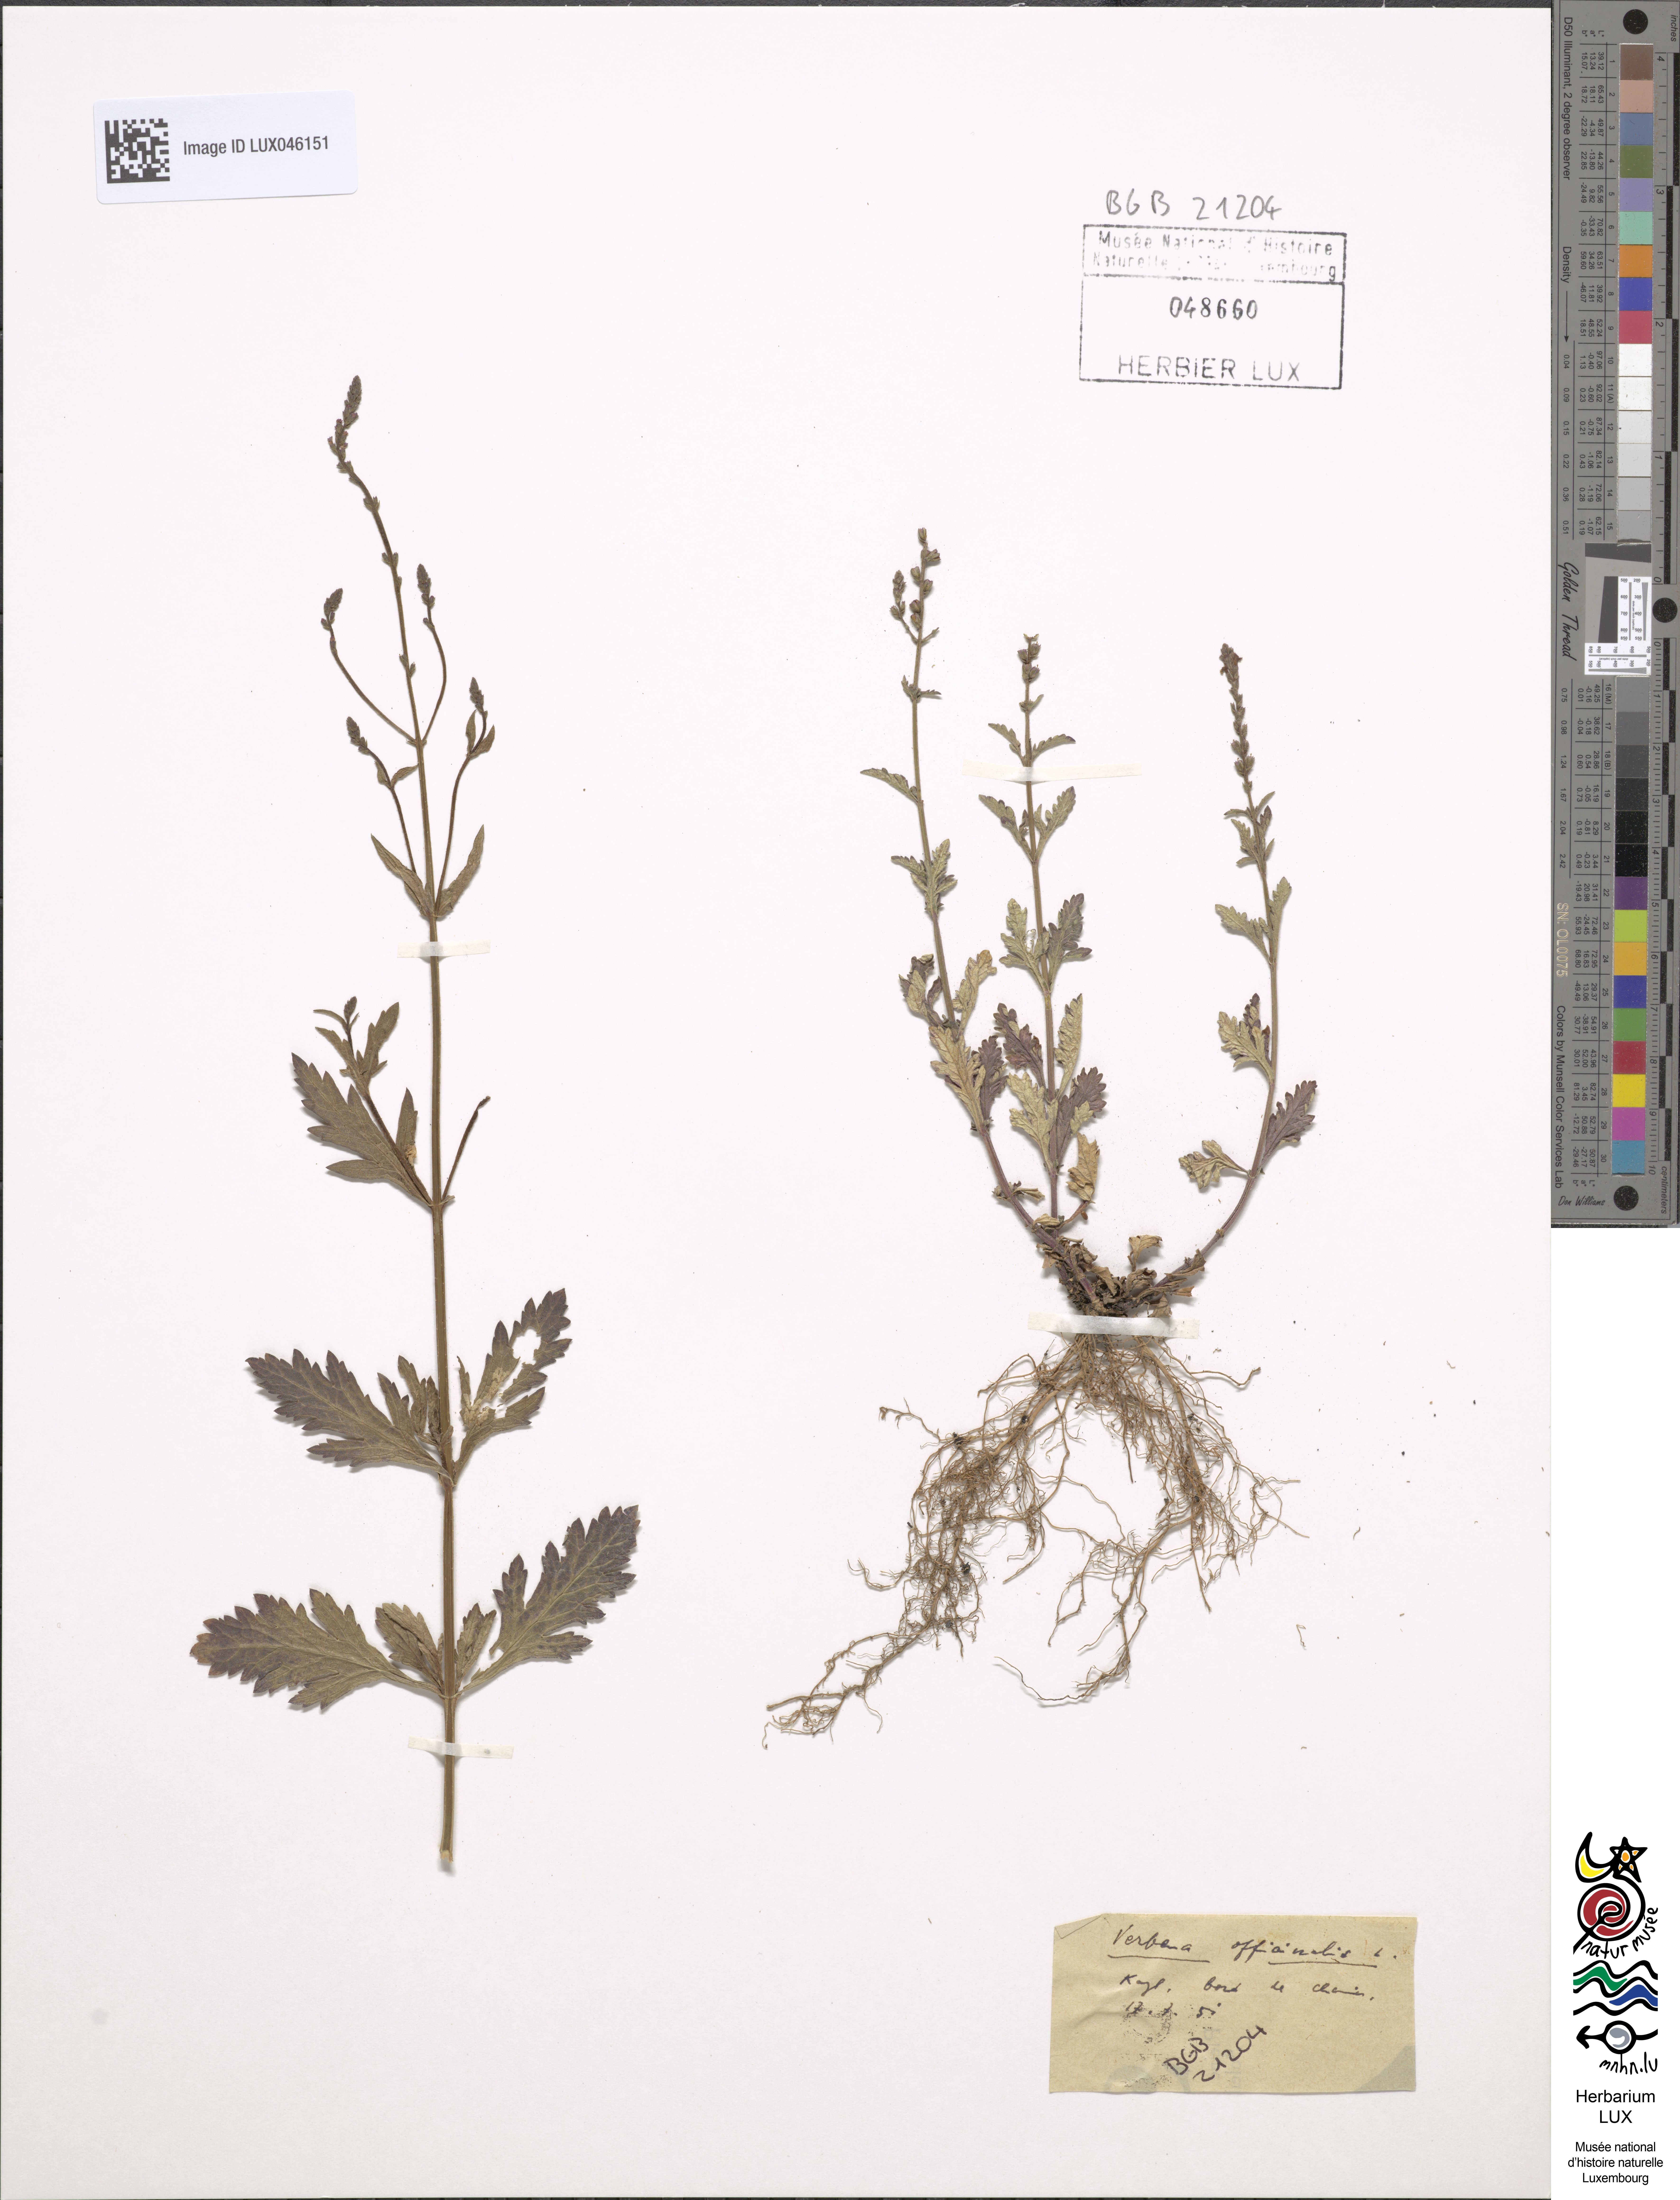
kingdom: Plantae
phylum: Tracheophyta
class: Magnoliopsida
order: Lamiales
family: Verbenaceae
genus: Verbena
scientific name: Verbena officinalis
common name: Vervain
